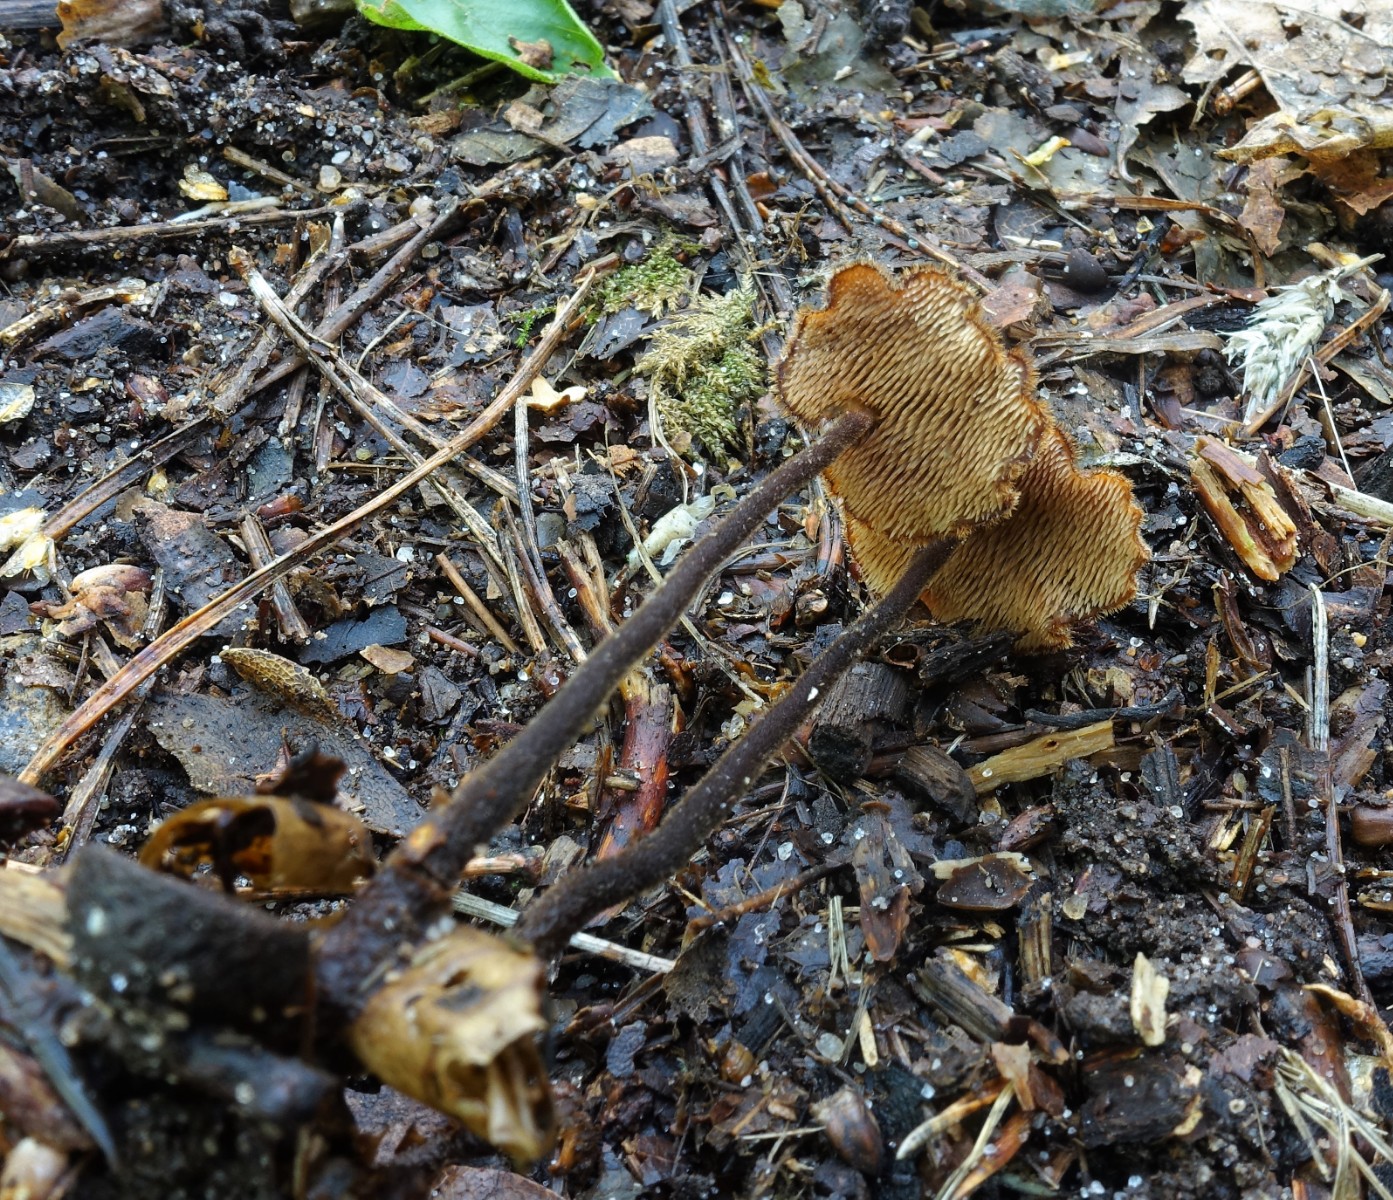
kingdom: Fungi
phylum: Basidiomycota
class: Agaricomycetes
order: Russulales
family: Auriscalpiaceae
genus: Auriscalpium
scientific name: Auriscalpium vulgare
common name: koglepigsvamp
